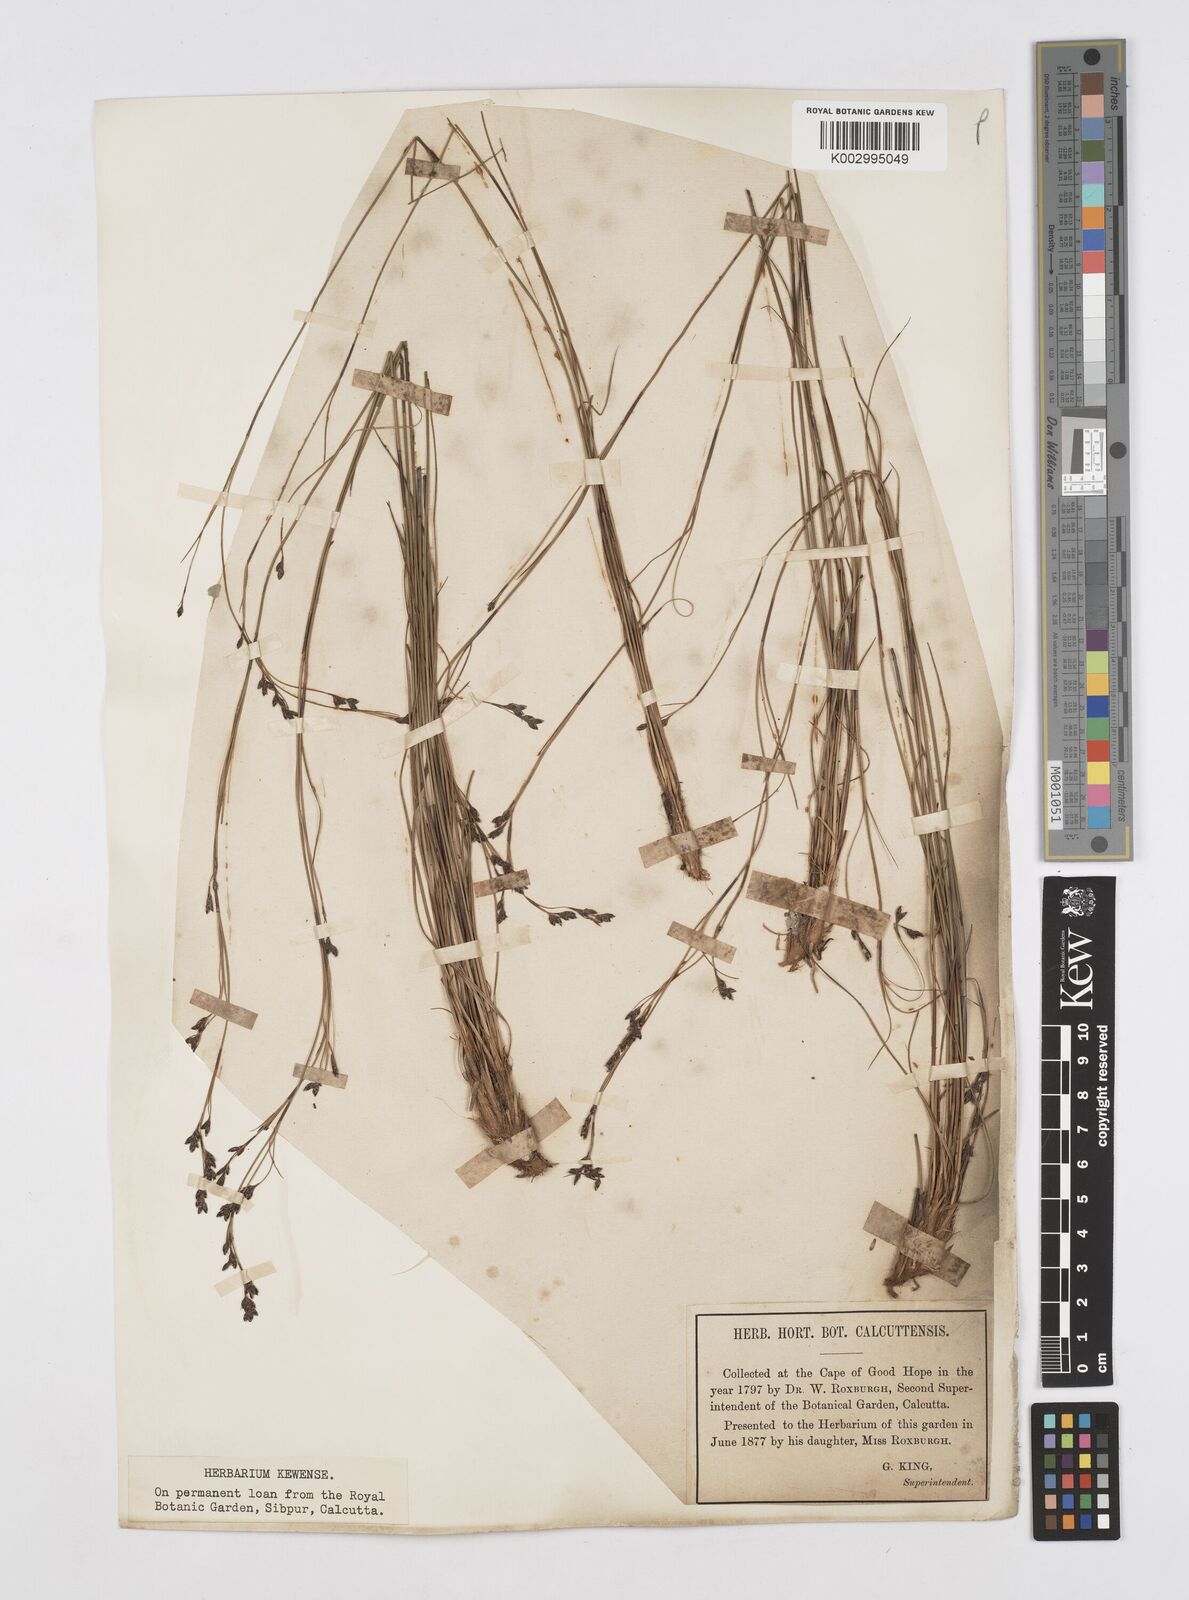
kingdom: Plantae
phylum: Tracheophyta
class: Liliopsida
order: Poales
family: Restionaceae
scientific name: Restionaceae
